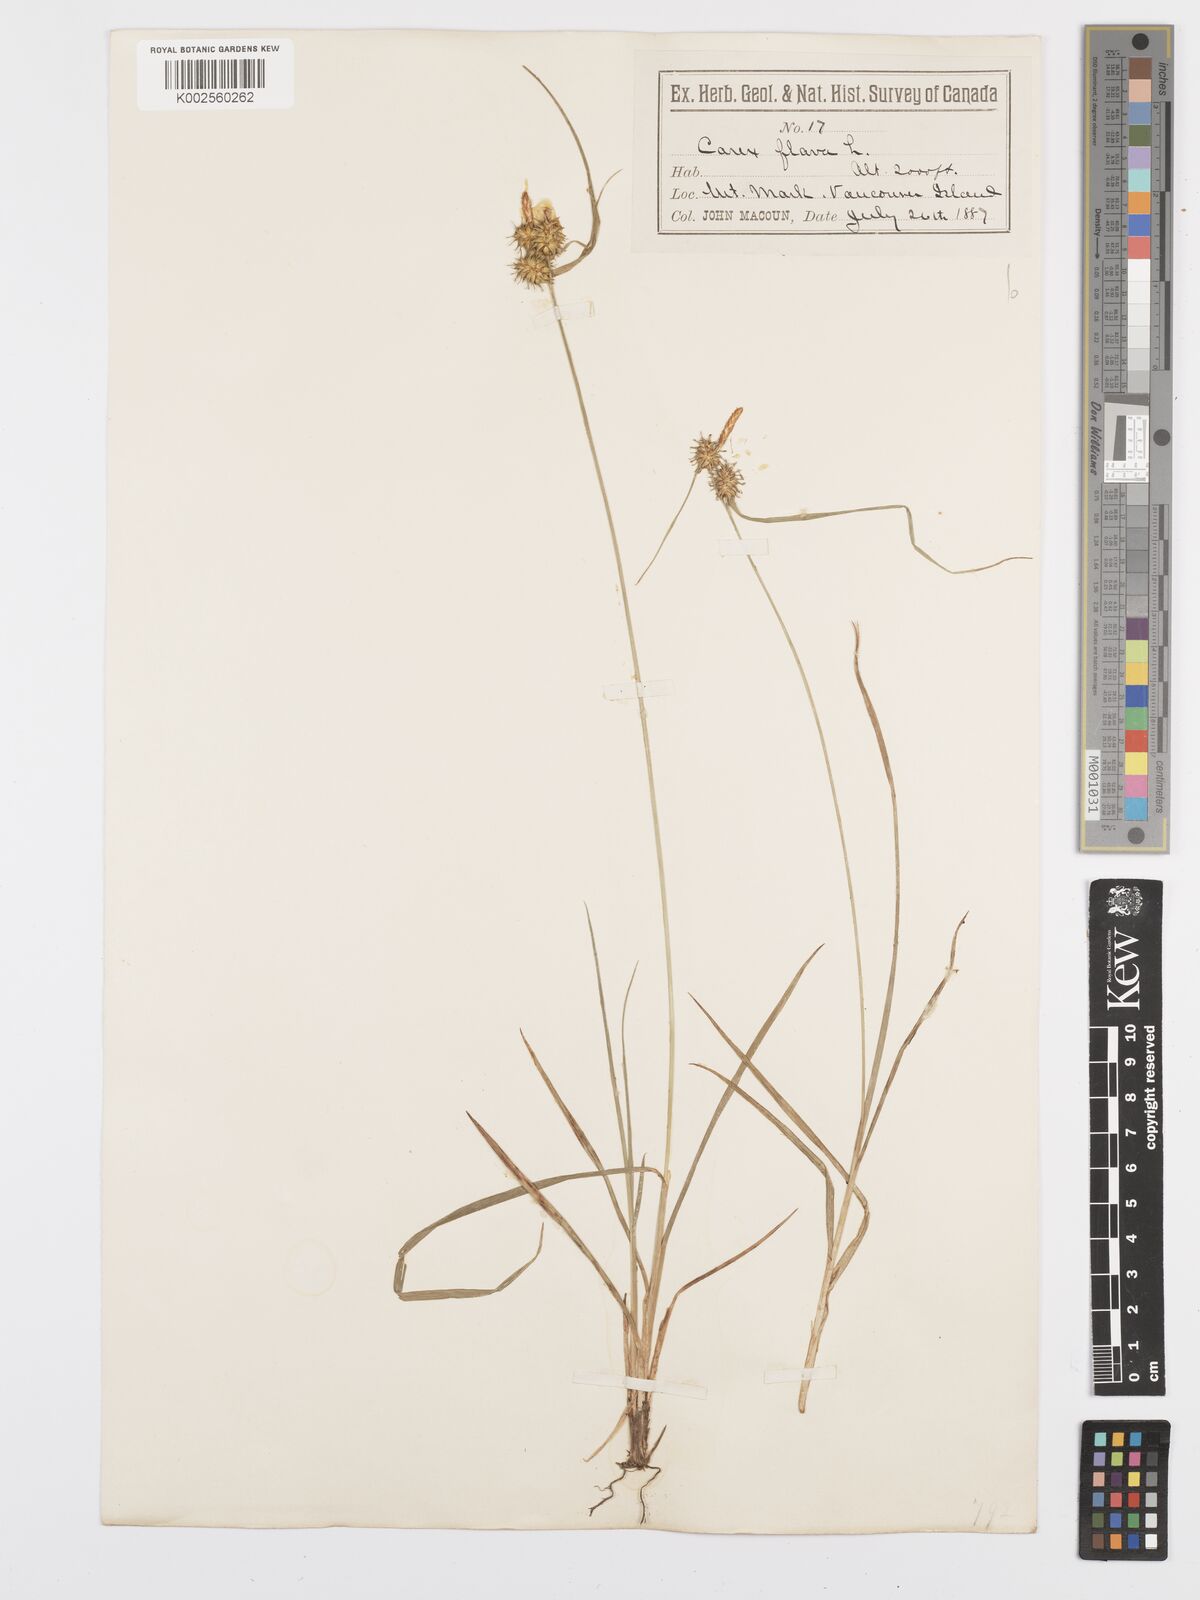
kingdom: Plantae
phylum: Tracheophyta
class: Liliopsida
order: Poales
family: Cyperaceae
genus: Carex
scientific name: Carex flava
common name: Large yellow-sedge
